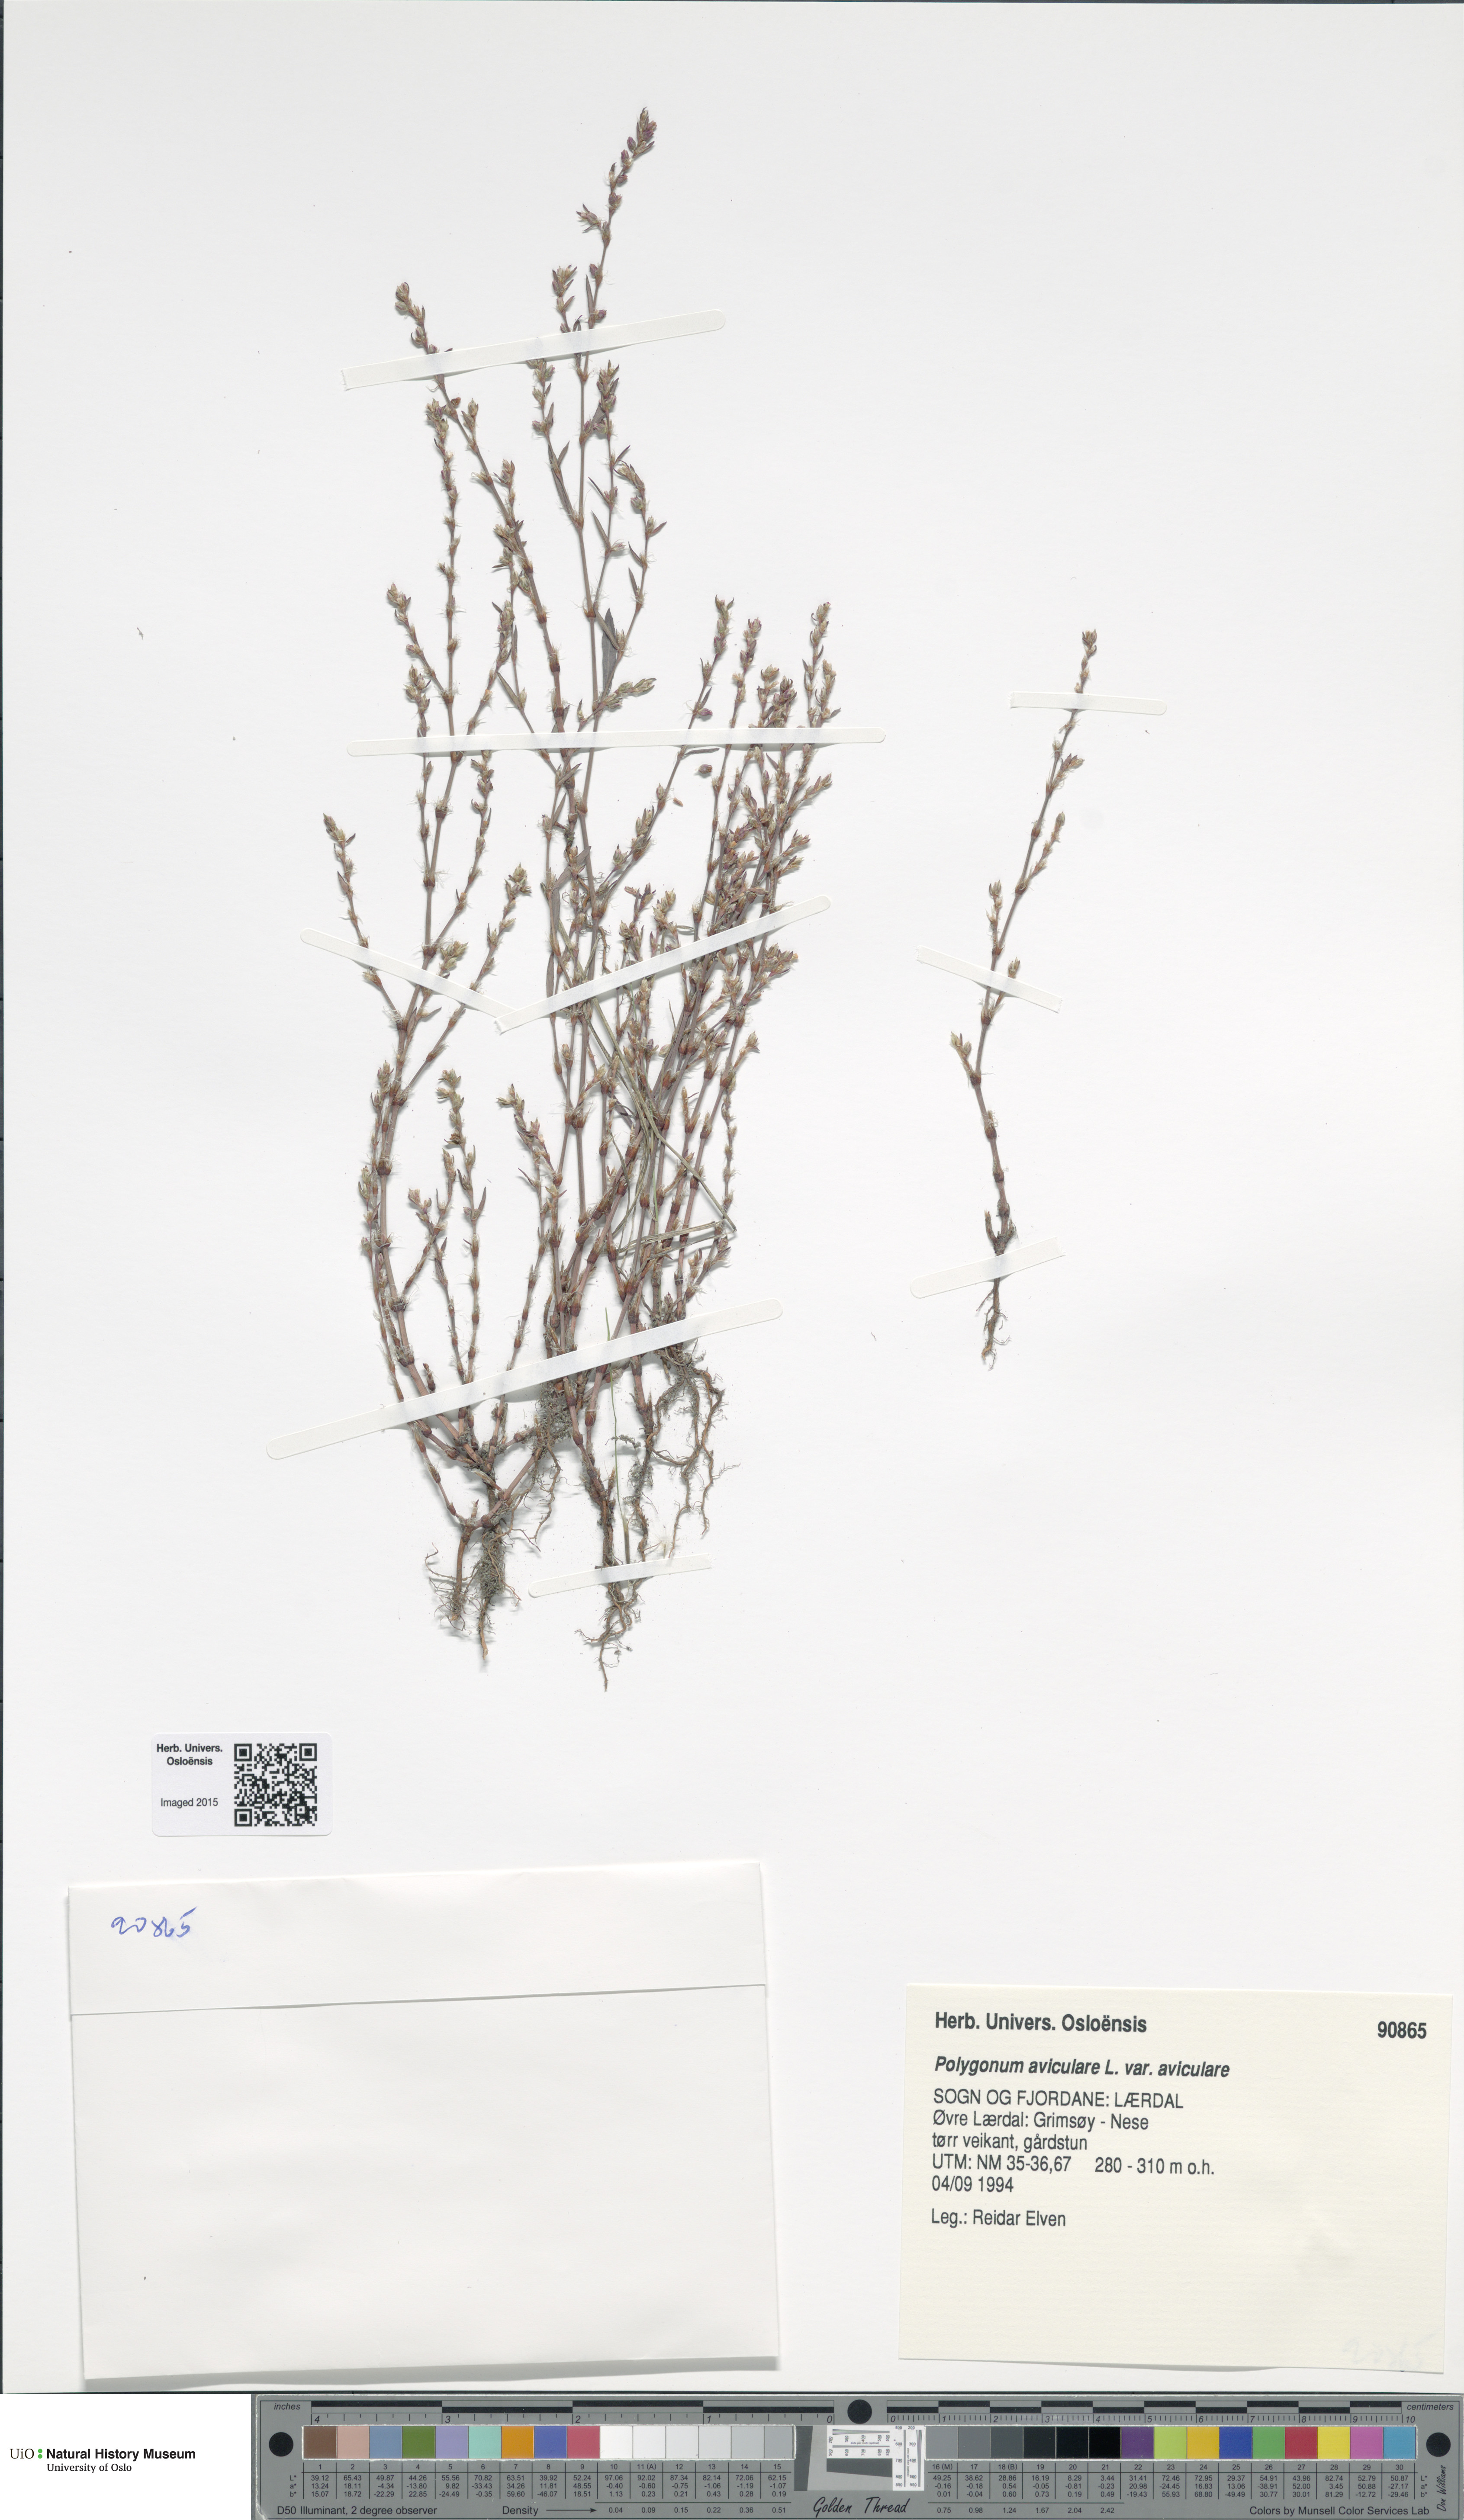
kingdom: Plantae
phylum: Tracheophyta
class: Magnoliopsida
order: Caryophyllales
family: Polygonaceae
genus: Polygonum
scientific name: Polygonum aviculare
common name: Prostrate knotweed
